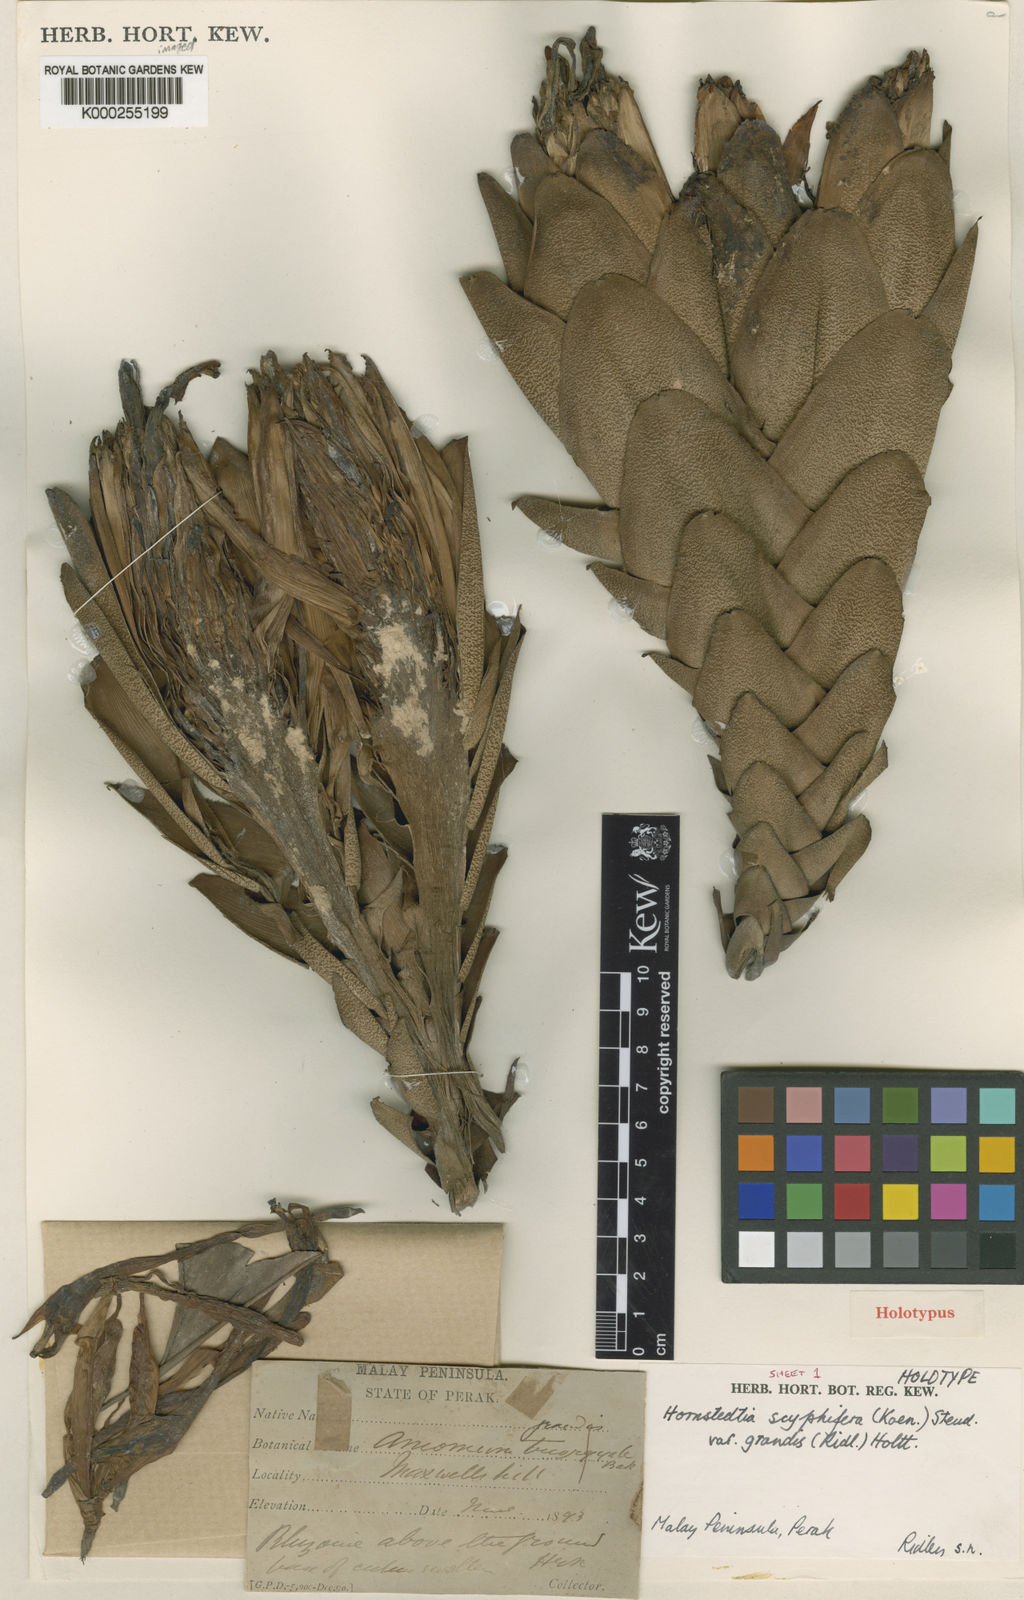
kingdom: Plantae
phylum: Tracheophyta
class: Liliopsida
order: Zingiberales
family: Zingiberaceae
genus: Hornstedtia
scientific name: Hornstedtia scyphifera
